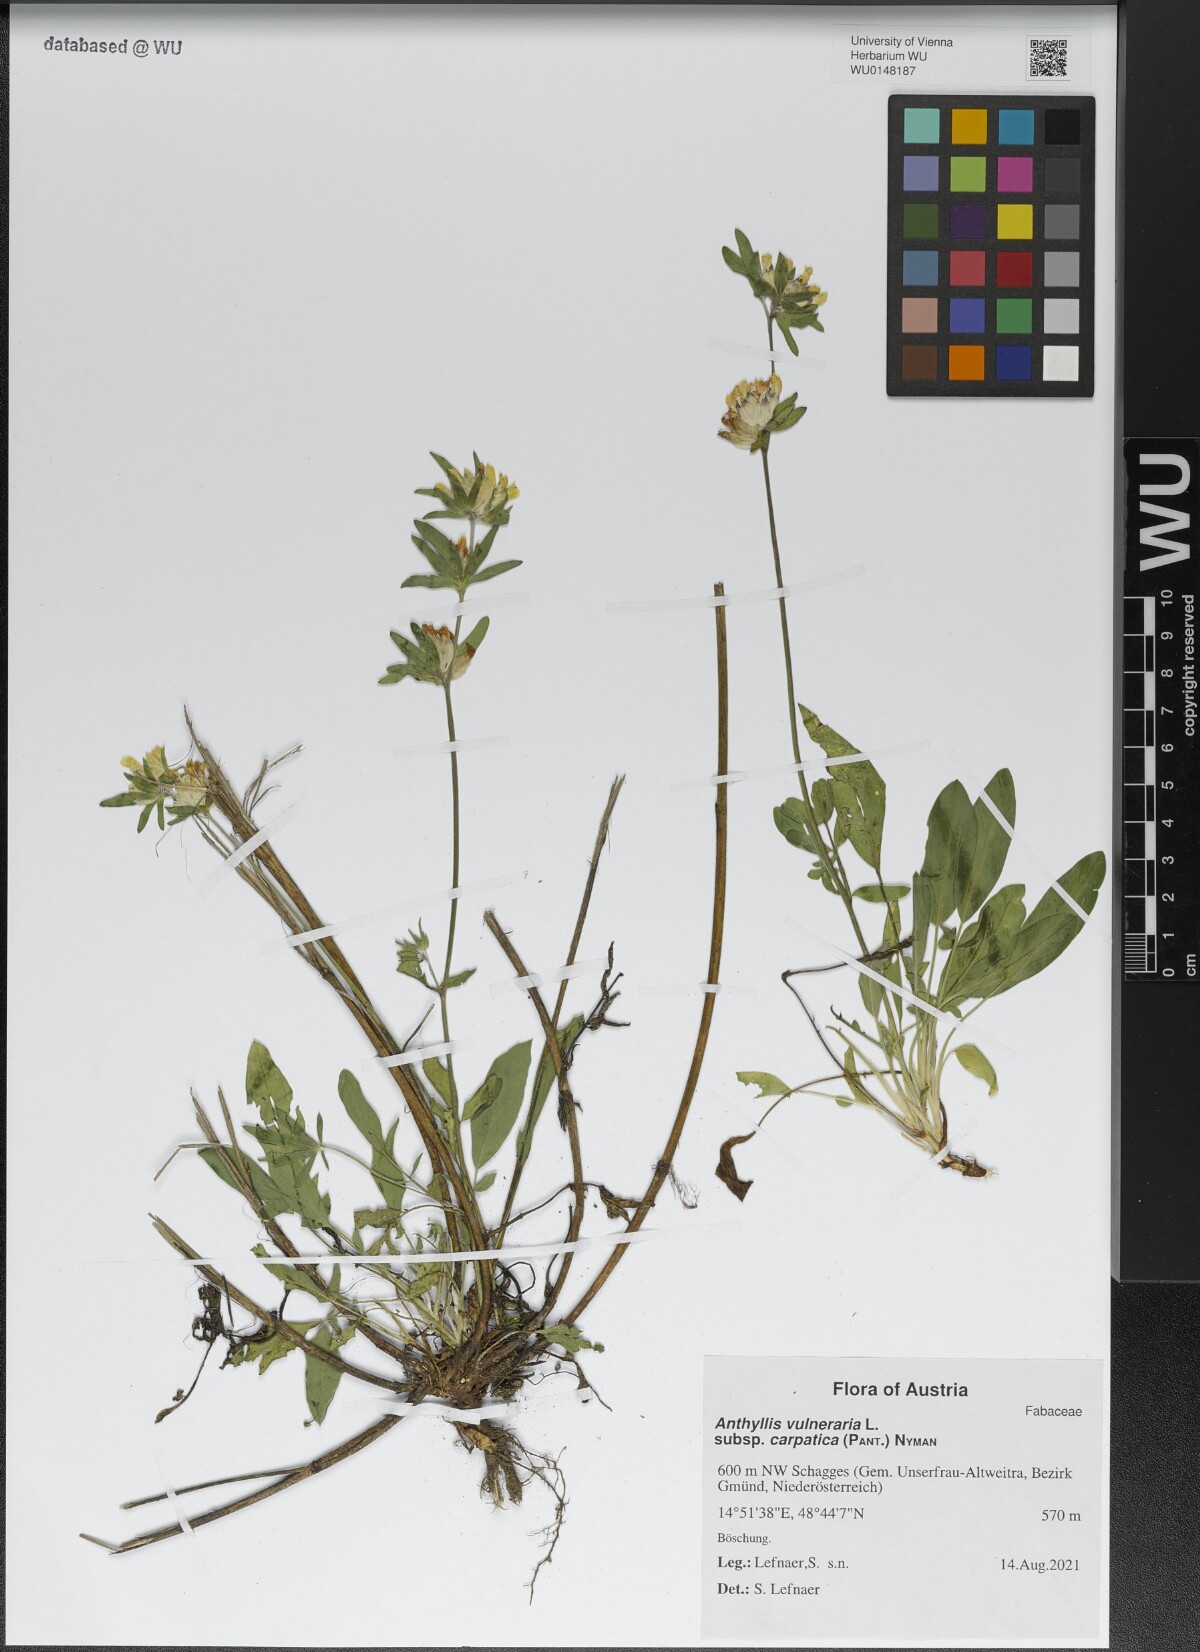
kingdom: Plantae
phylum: Tracheophyta
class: Magnoliopsida
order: Fabales
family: Fabaceae
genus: Anthyllis
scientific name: Anthyllis vulneraria
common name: Kidney vetch
